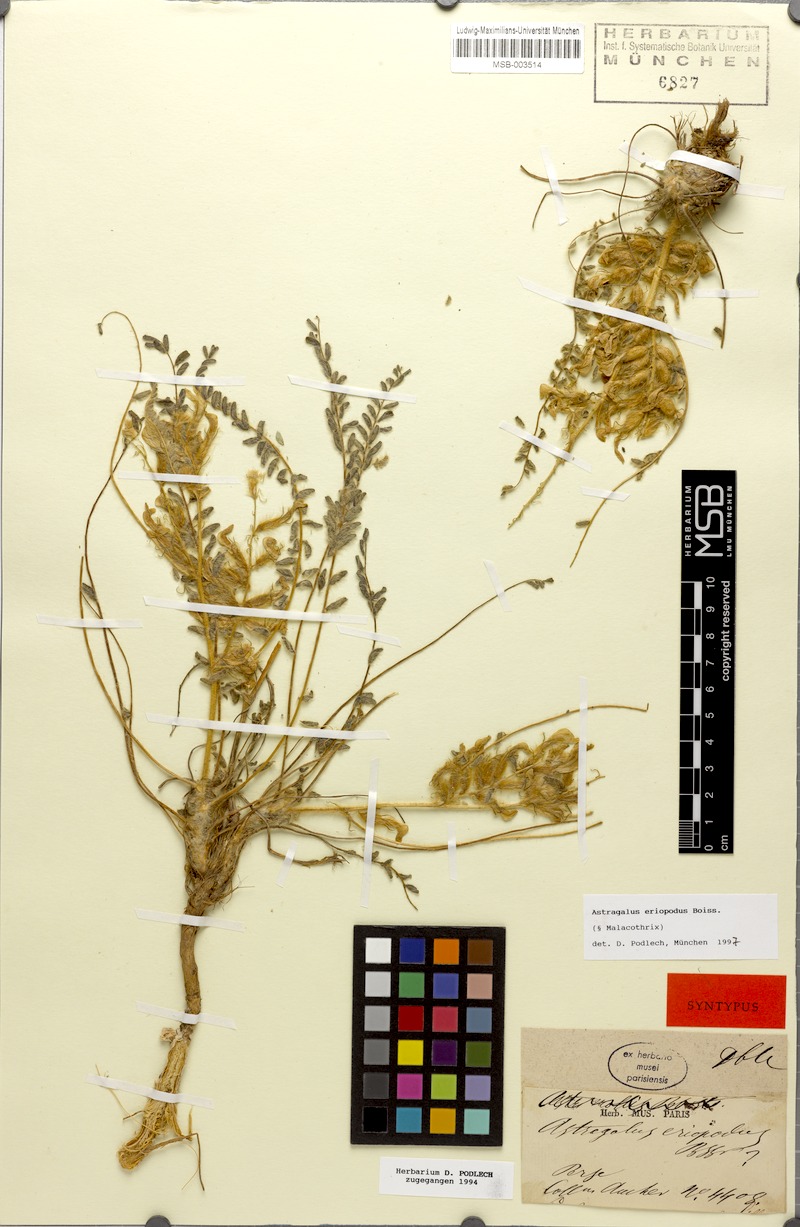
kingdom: Plantae
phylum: Tracheophyta
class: Magnoliopsida
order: Fabales
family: Fabaceae
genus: Astragalus
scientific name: Astragalus eriopodus
